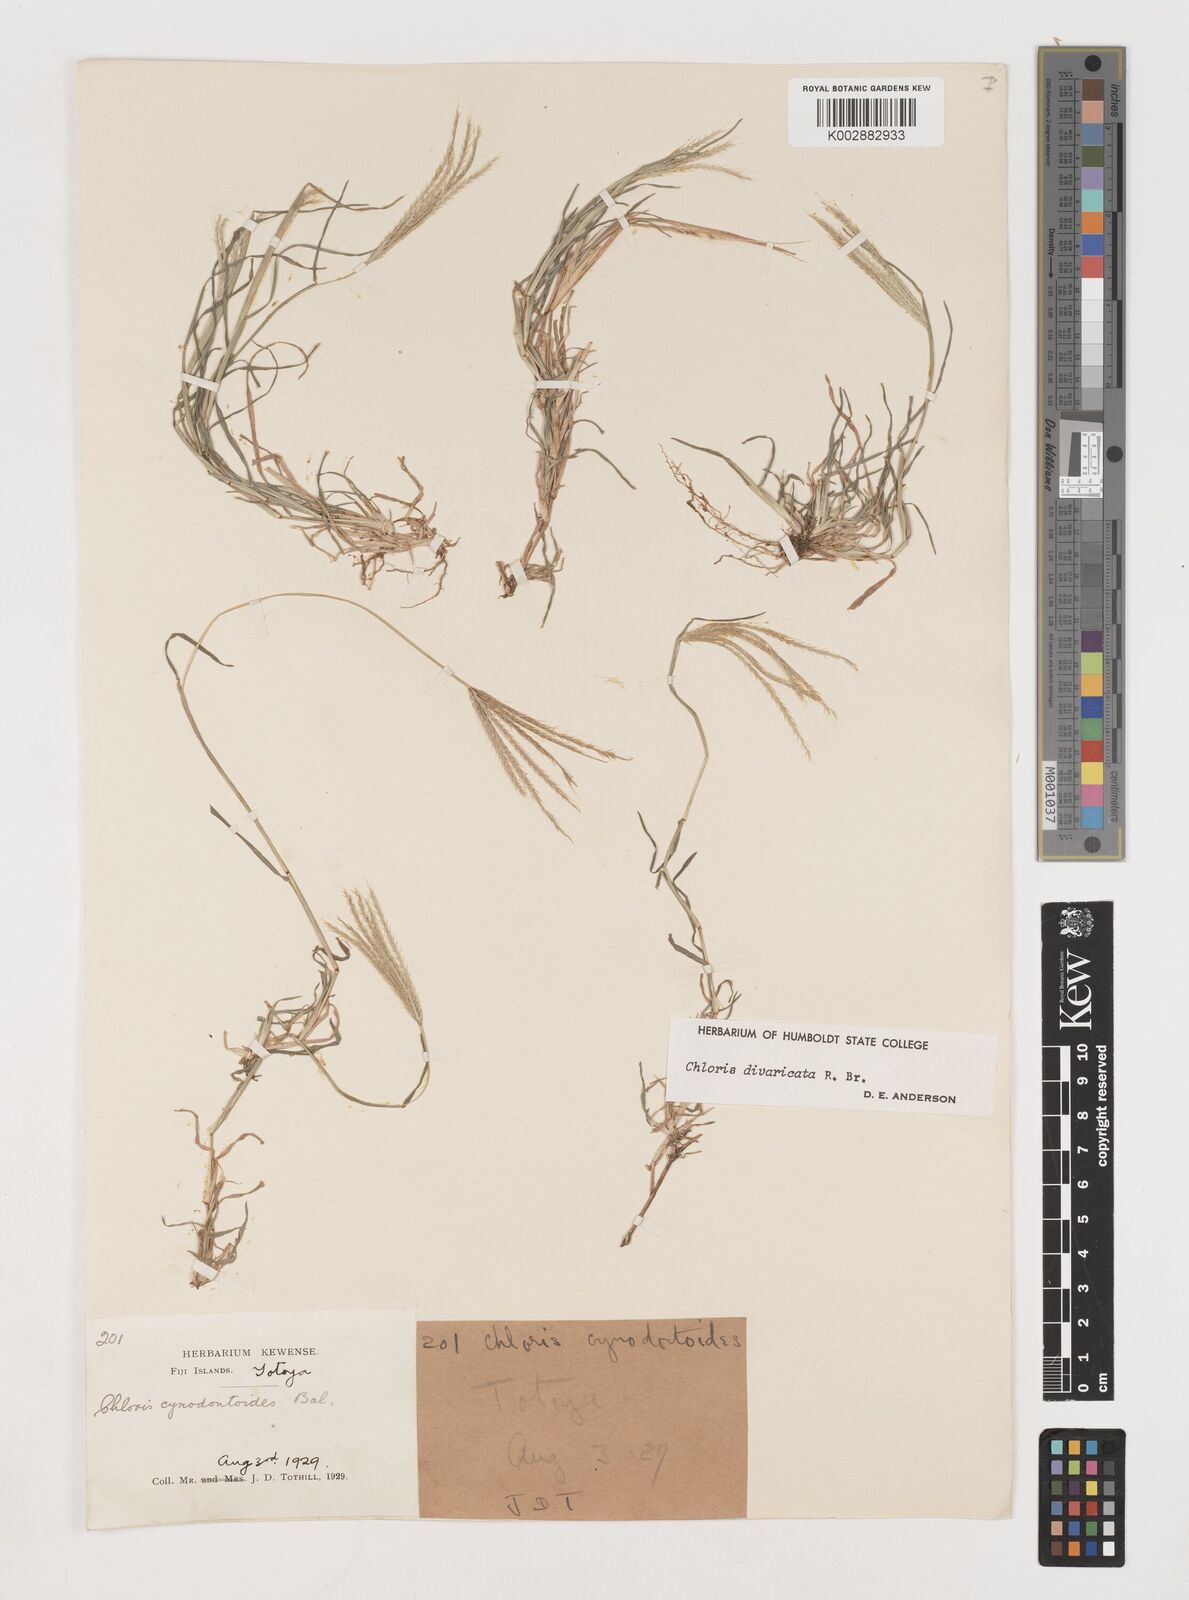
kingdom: Plantae
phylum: Tracheophyta
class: Liliopsida
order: Poales
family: Poaceae
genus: Chloris
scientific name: Chloris divaricata
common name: Spreading windmill grass
